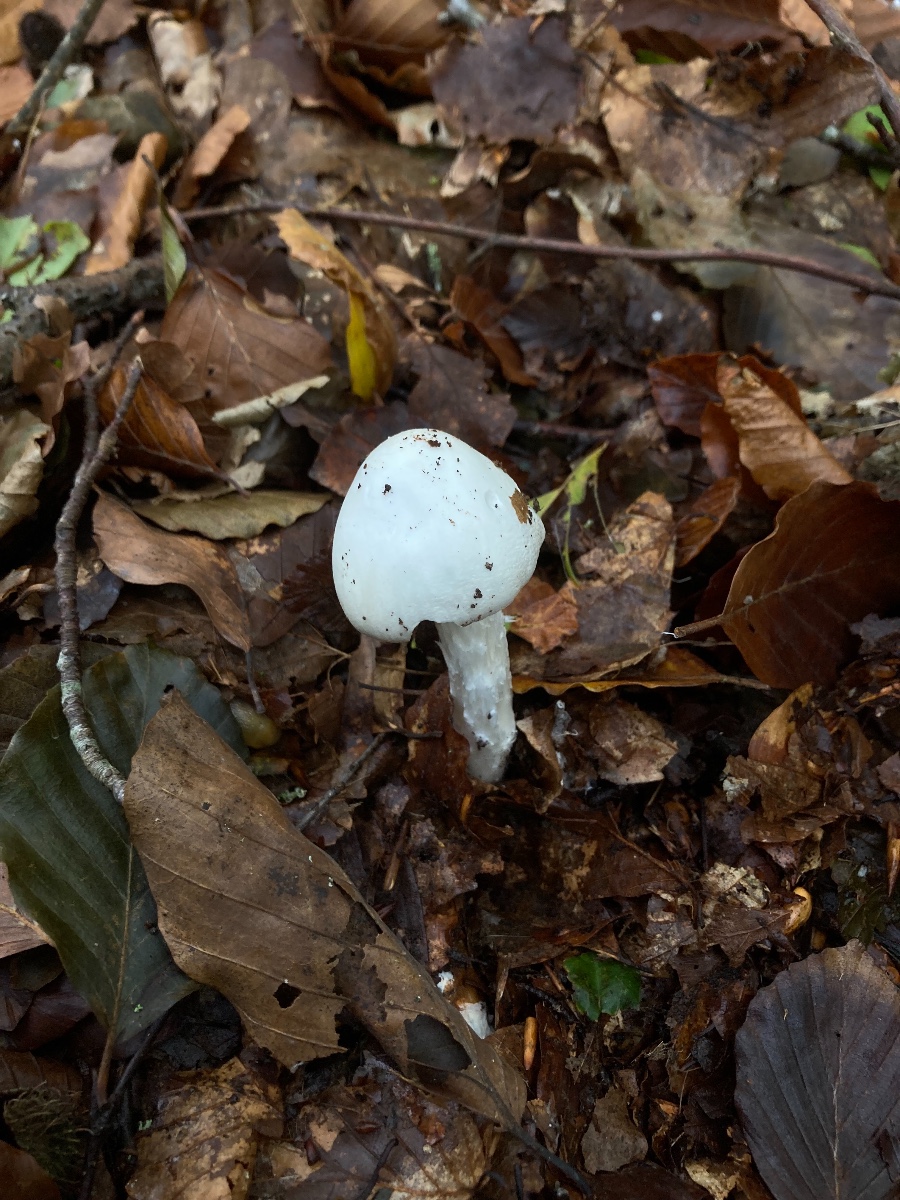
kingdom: Fungi
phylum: Basidiomycota
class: Agaricomycetes
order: Agaricales
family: Amanitaceae
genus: Amanita
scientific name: Amanita virosa
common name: snehvid fluesvamp
